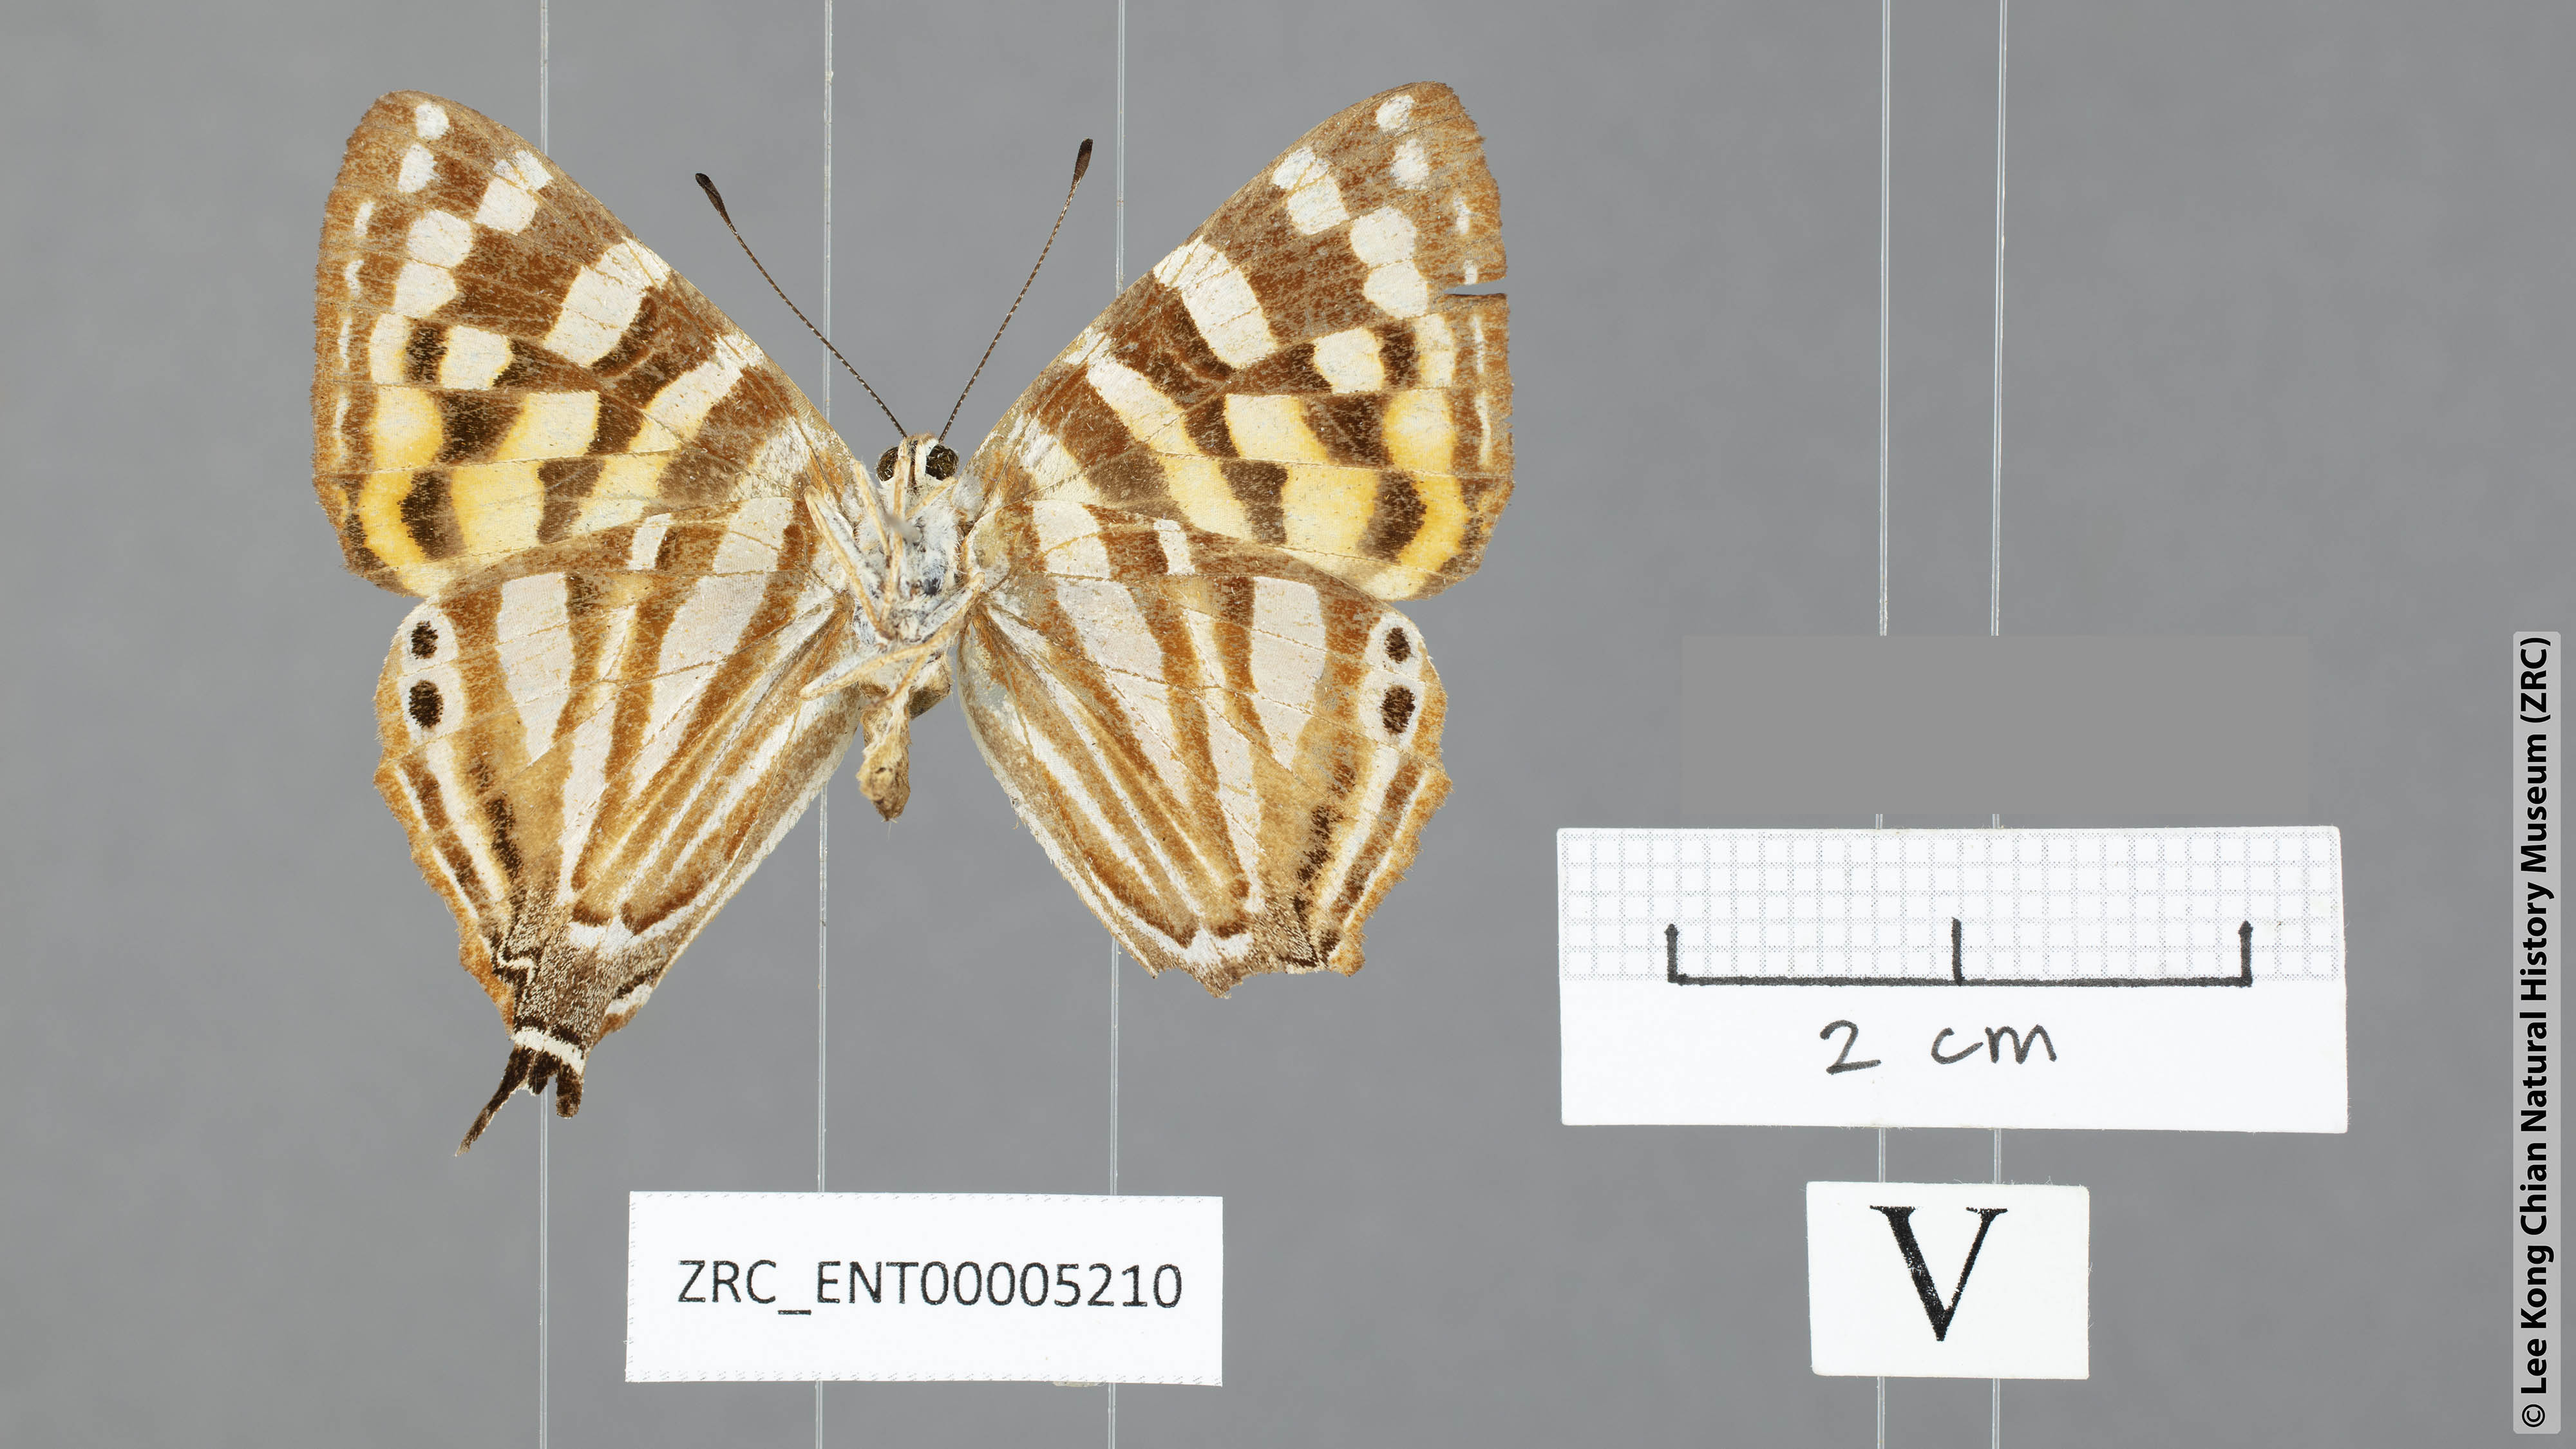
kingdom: Animalia
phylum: Arthropoda
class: Insecta
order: Lepidoptera
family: Lycaenidae
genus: Dodona
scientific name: Dodona egeon
